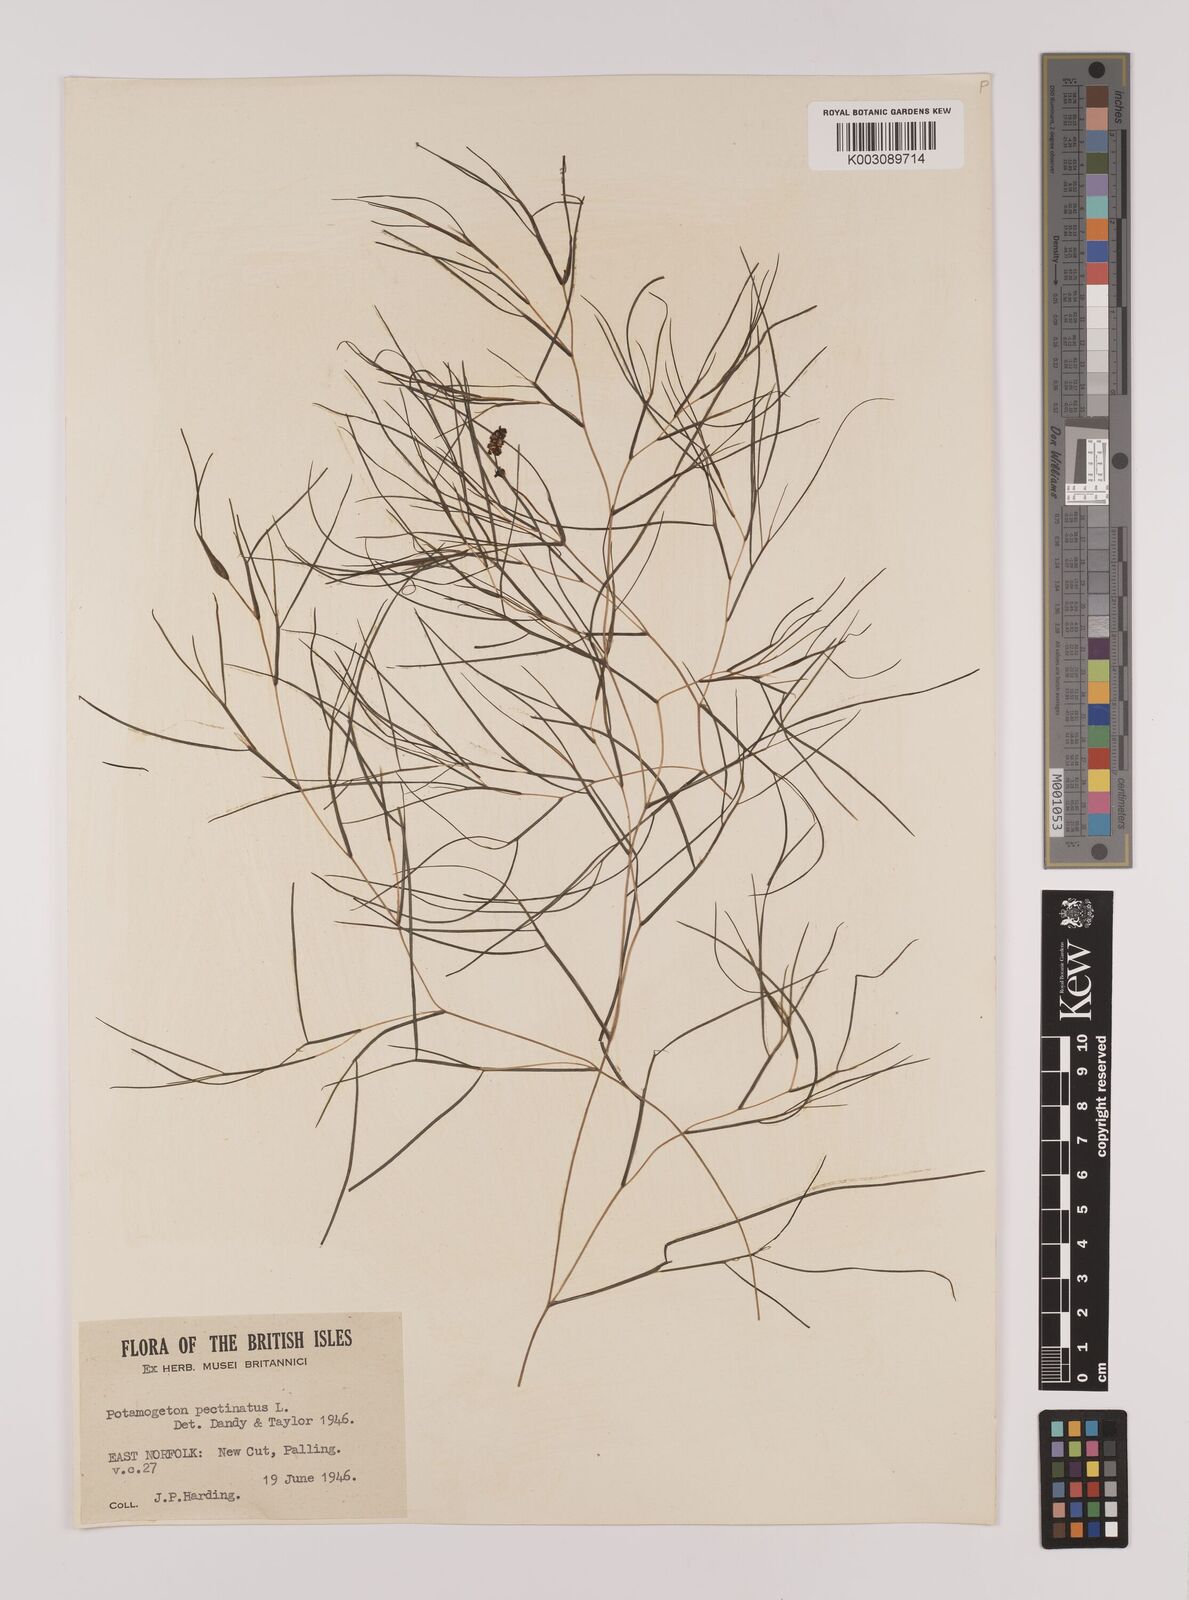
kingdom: Plantae
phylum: Tracheophyta
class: Liliopsida
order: Alismatales
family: Potamogetonaceae
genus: Stuckenia
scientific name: Stuckenia pectinata
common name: Sago pondweed
